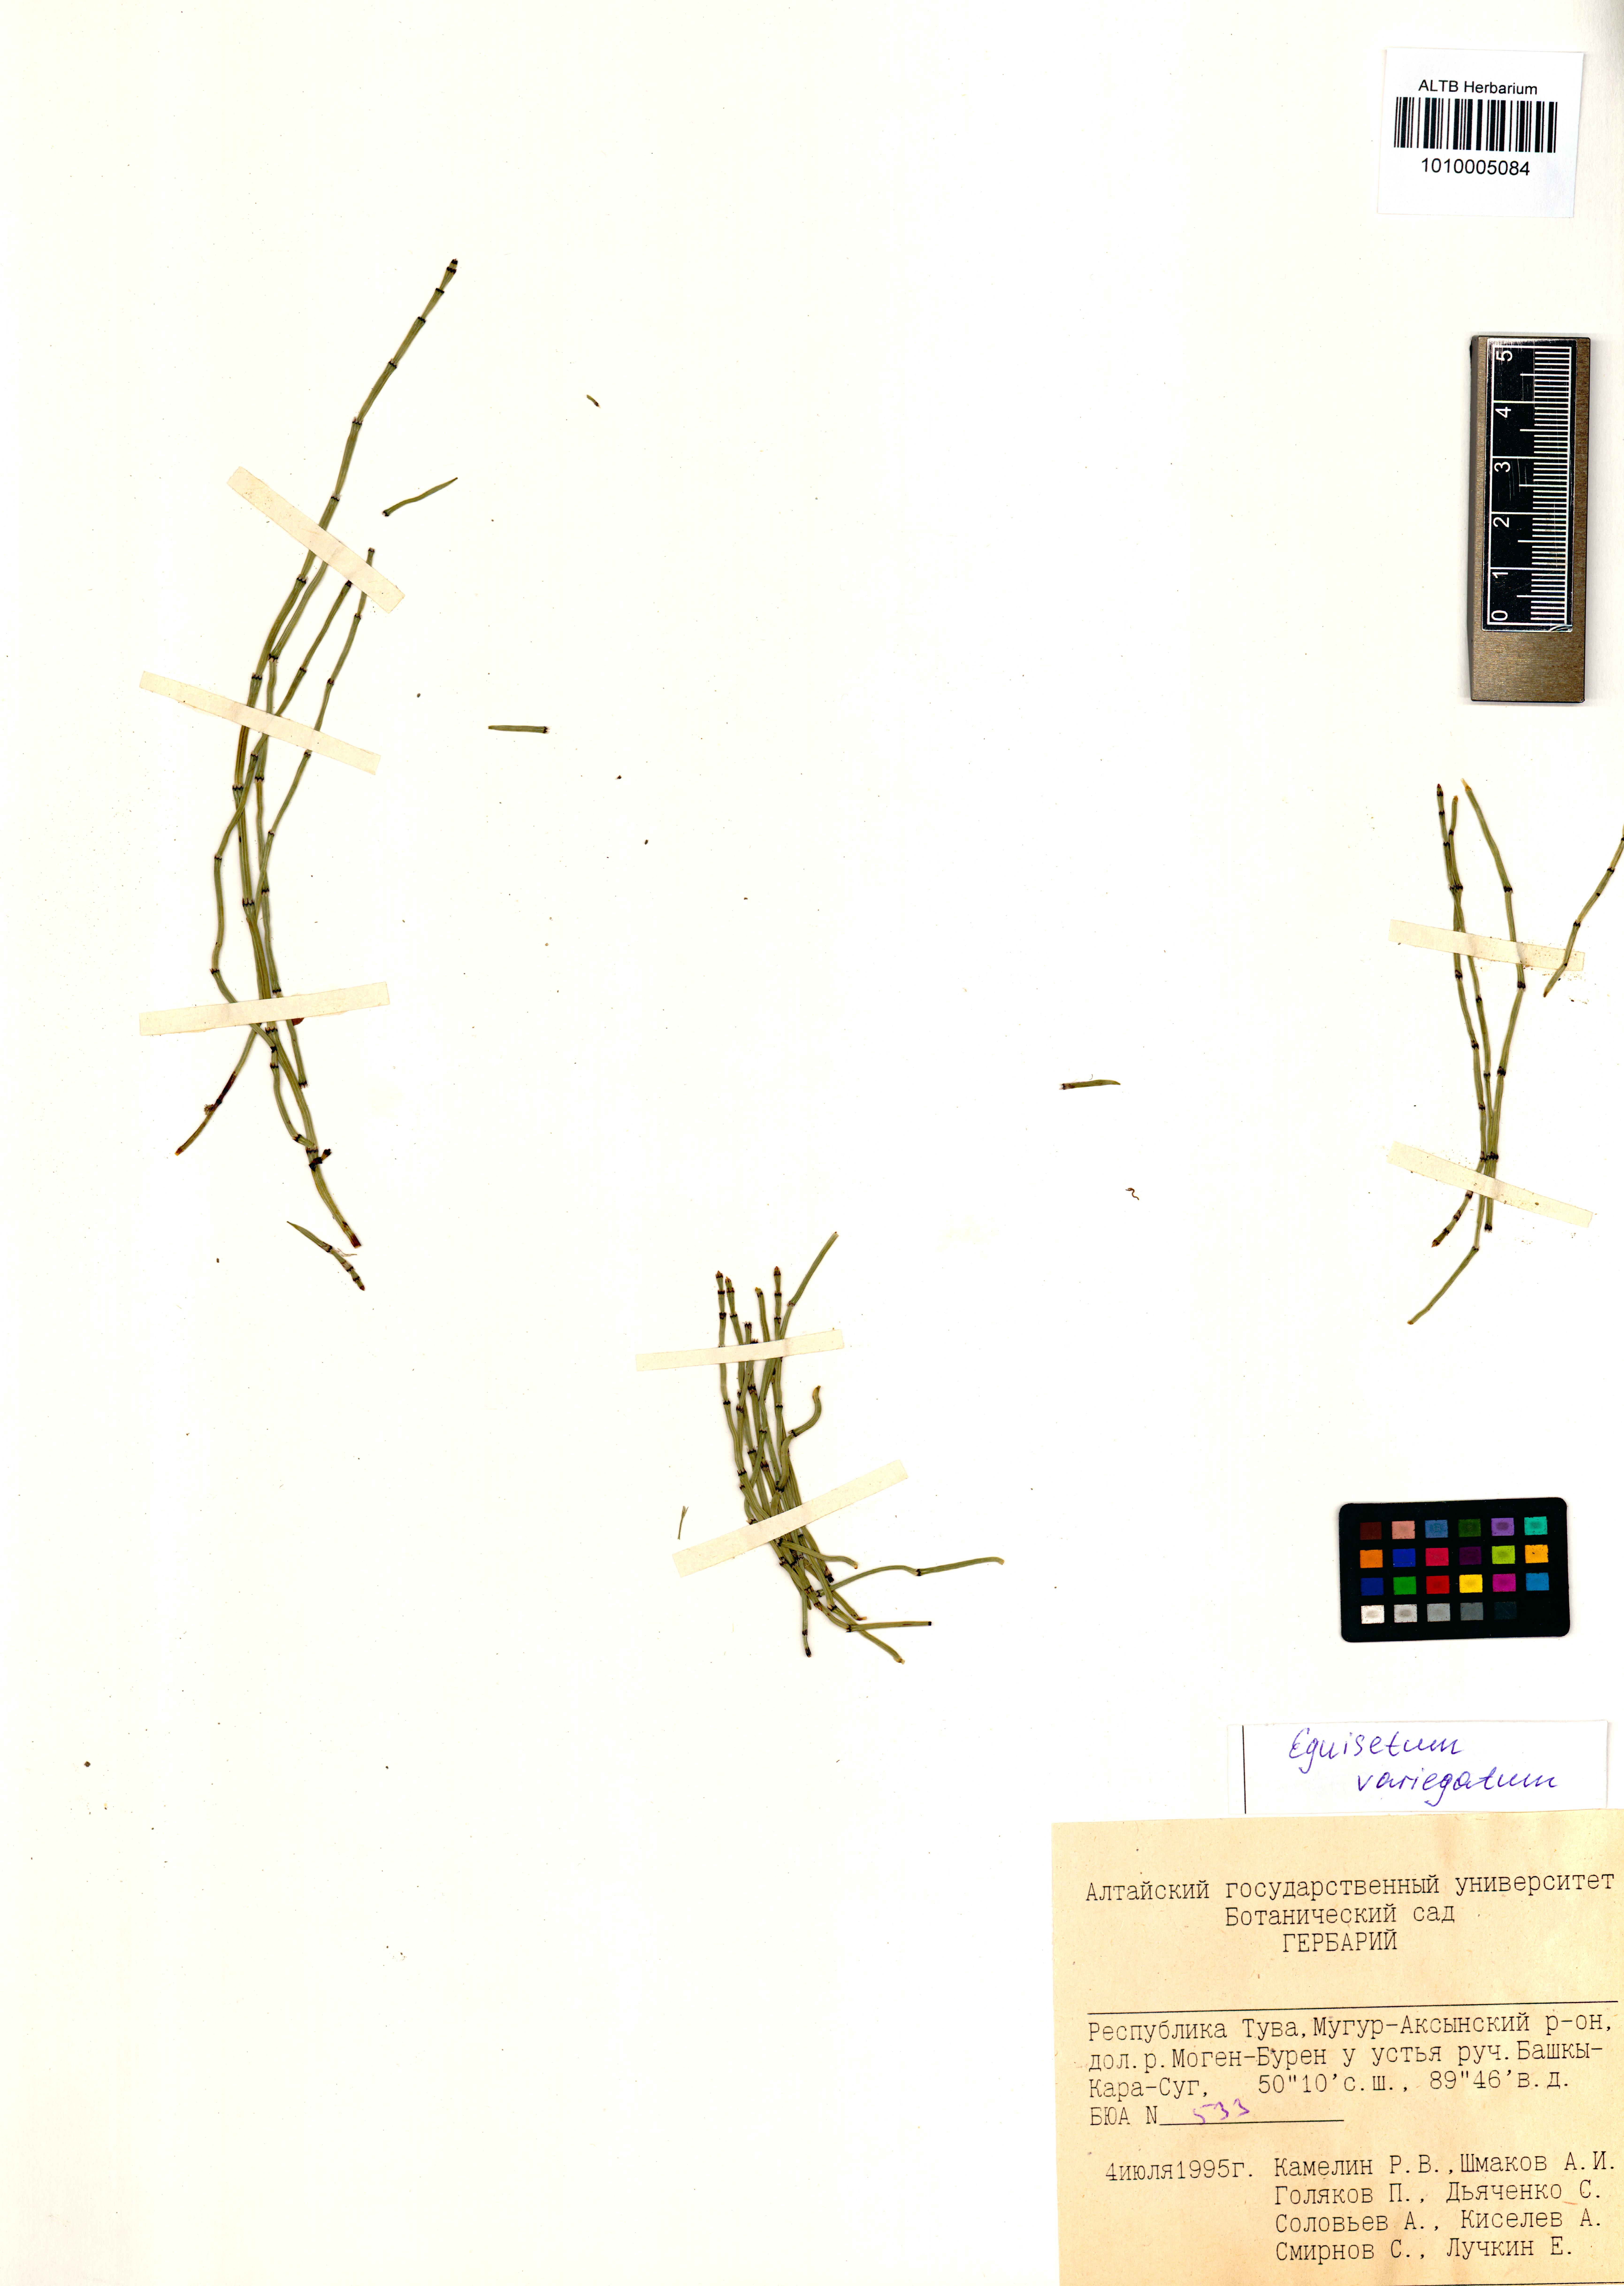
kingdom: Plantae
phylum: Tracheophyta
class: Polypodiopsida
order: Equisetales
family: Equisetaceae
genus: Equisetum
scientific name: Equisetum variegatum
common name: Variegated horsetail
